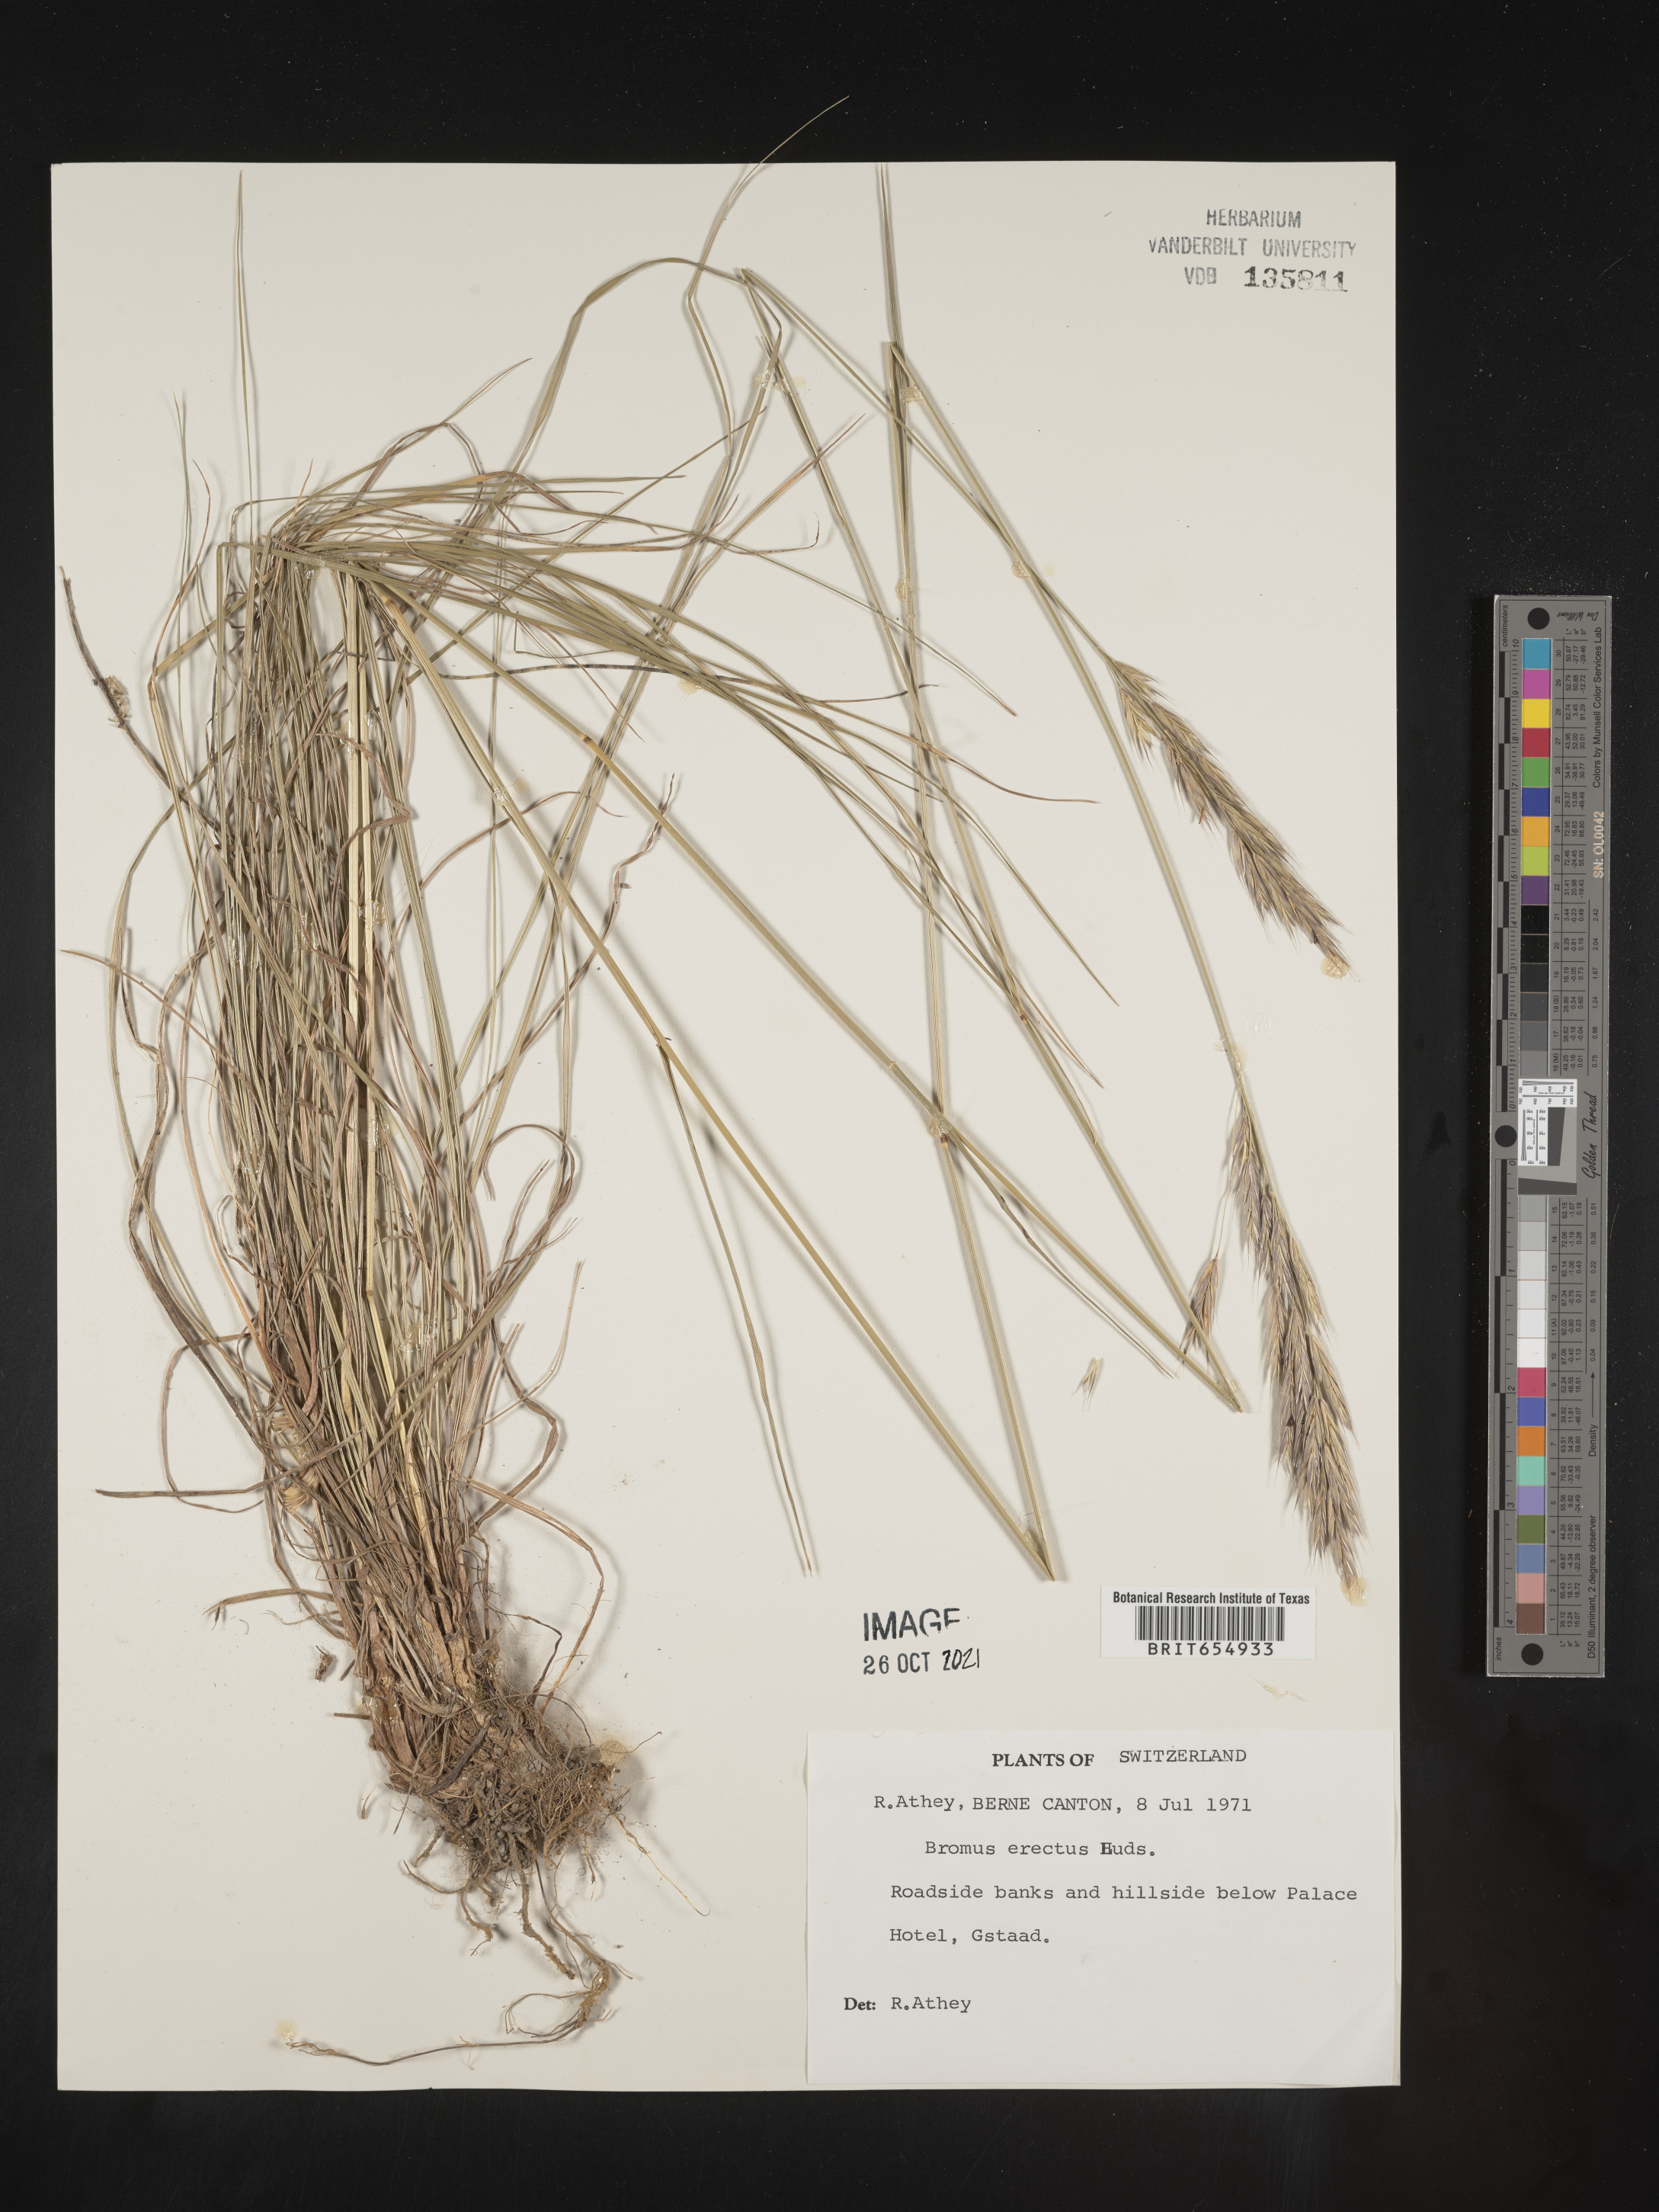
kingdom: Plantae
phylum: Tracheophyta
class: Liliopsida
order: Poales
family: Poaceae
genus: Bromus
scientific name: Bromus
